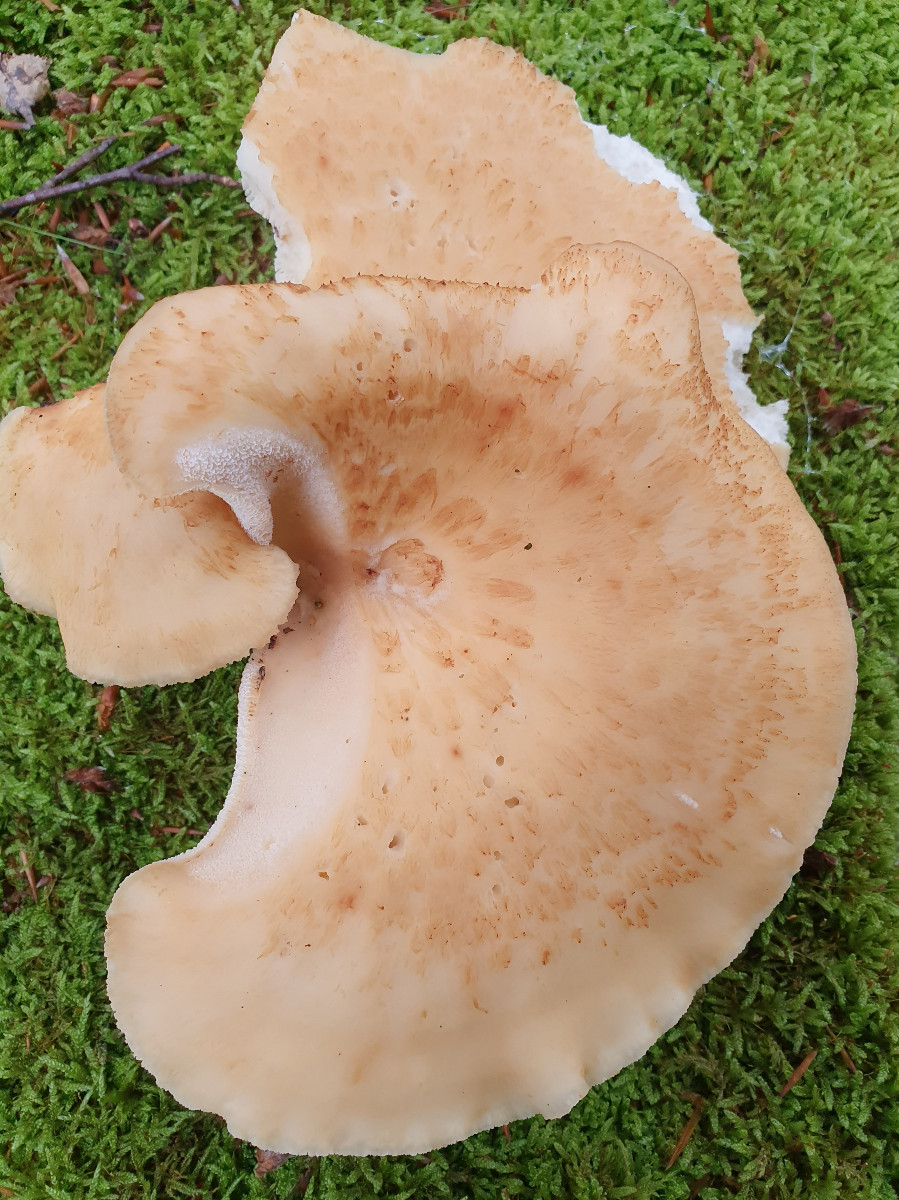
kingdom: Fungi
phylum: Basidiomycota
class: Agaricomycetes
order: Polyporales
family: Polyporaceae
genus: Cerioporus
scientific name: Cerioporus squamosus
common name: skællet stilkporesvamp
